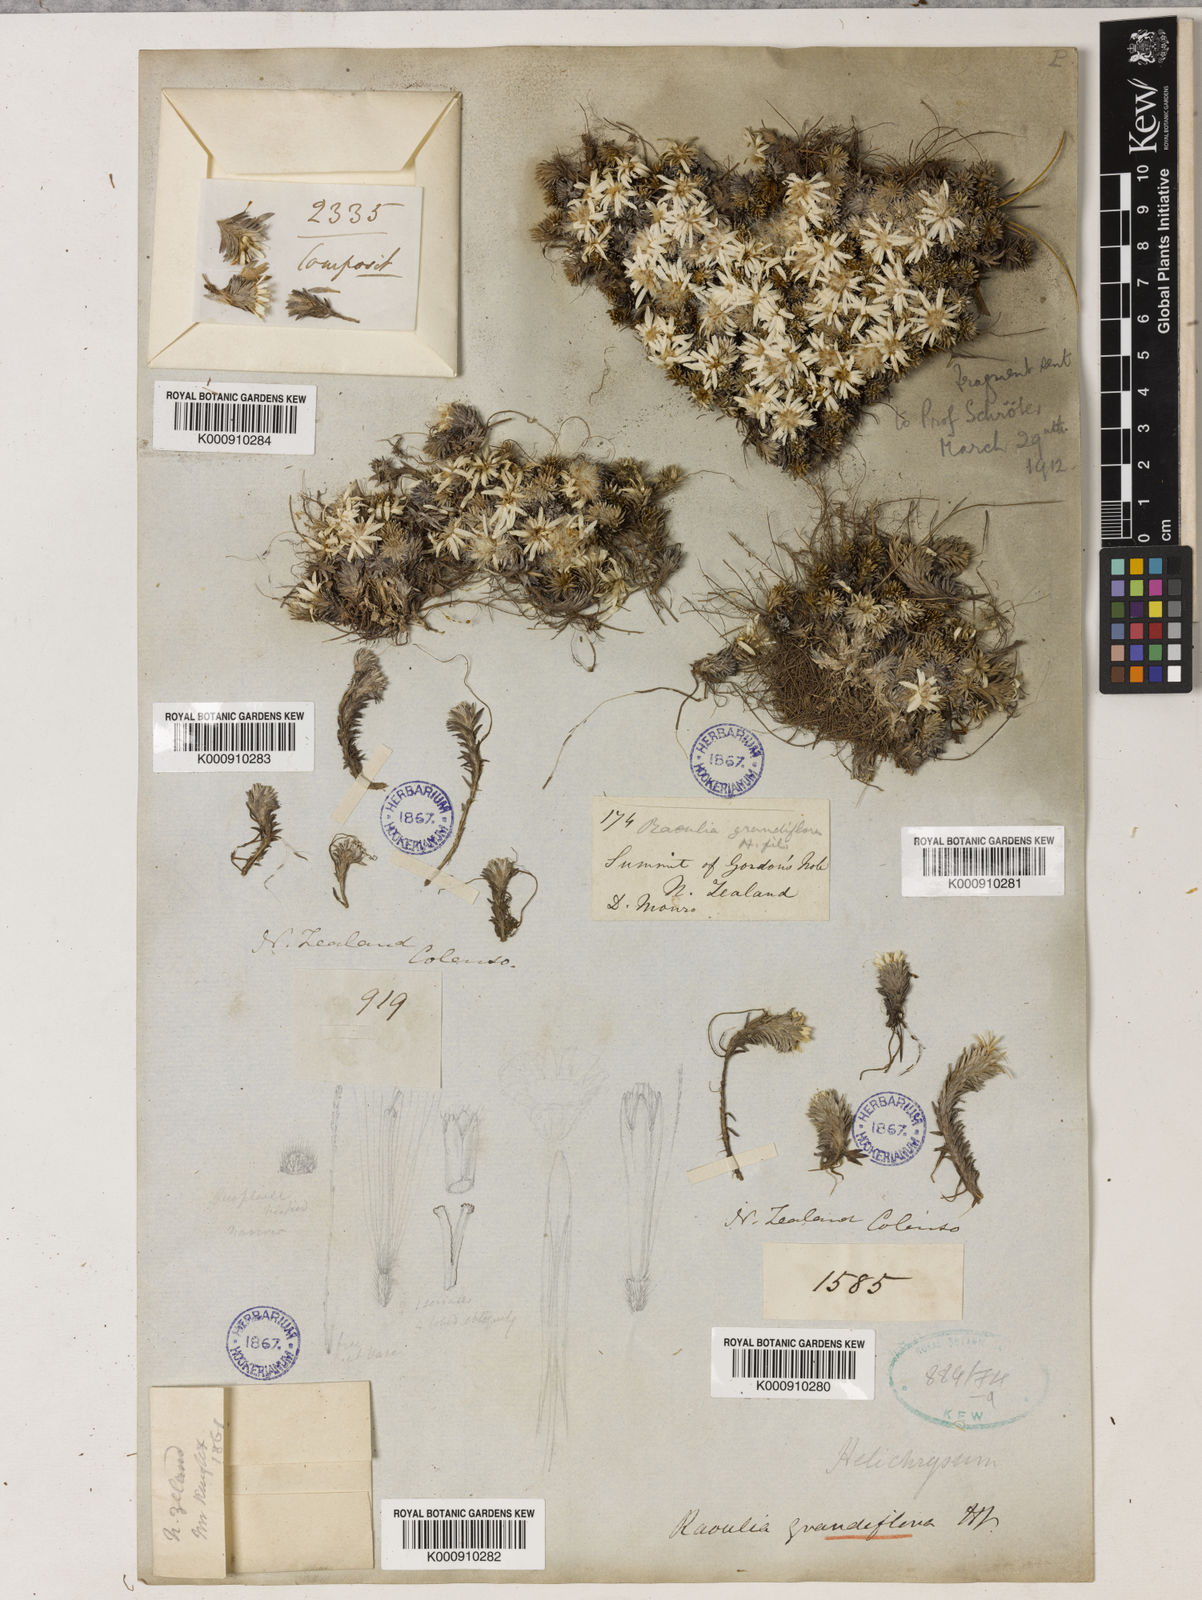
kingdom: Plantae
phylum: Tracheophyta
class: Magnoliopsida
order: Asterales
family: Asteraceae
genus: Raoulia
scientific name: Raoulia grandiflora
